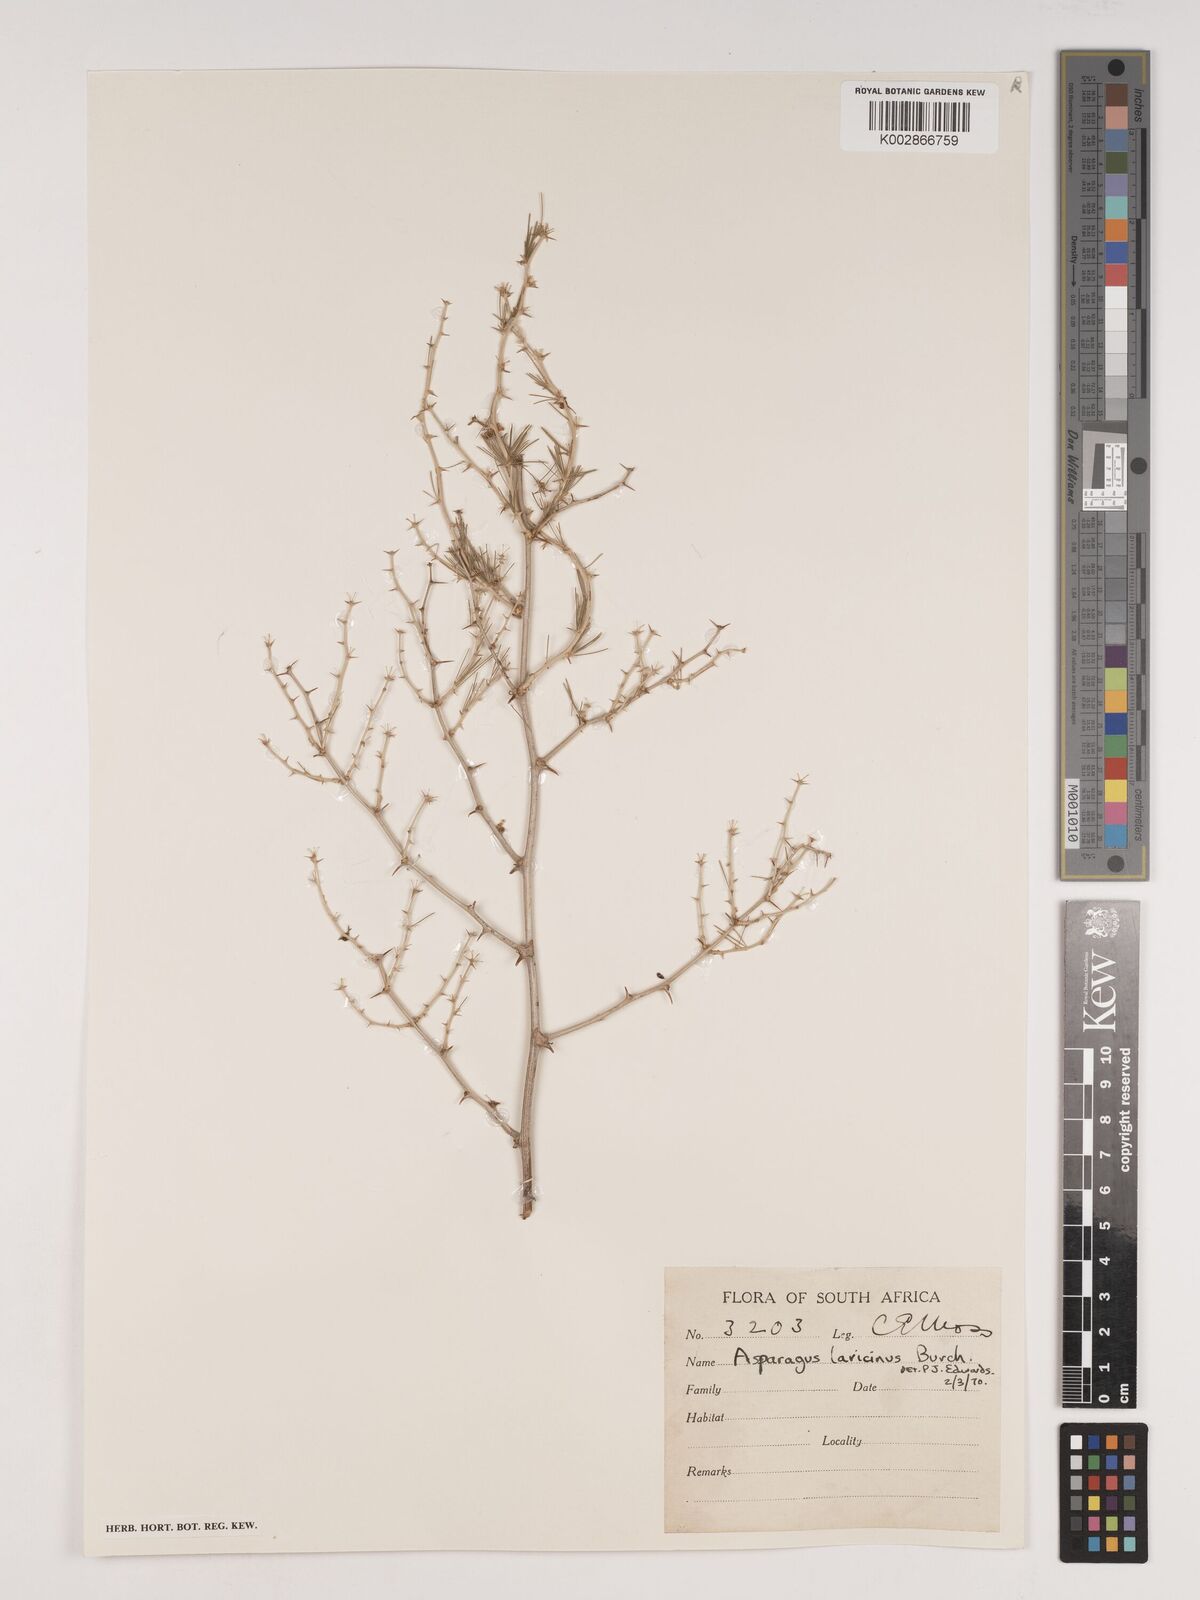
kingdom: Plantae
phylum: Tracheophyta
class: Liliopsida
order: Asparagales
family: Asparagaceae
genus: Asparagus
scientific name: Asparagus laricinus
